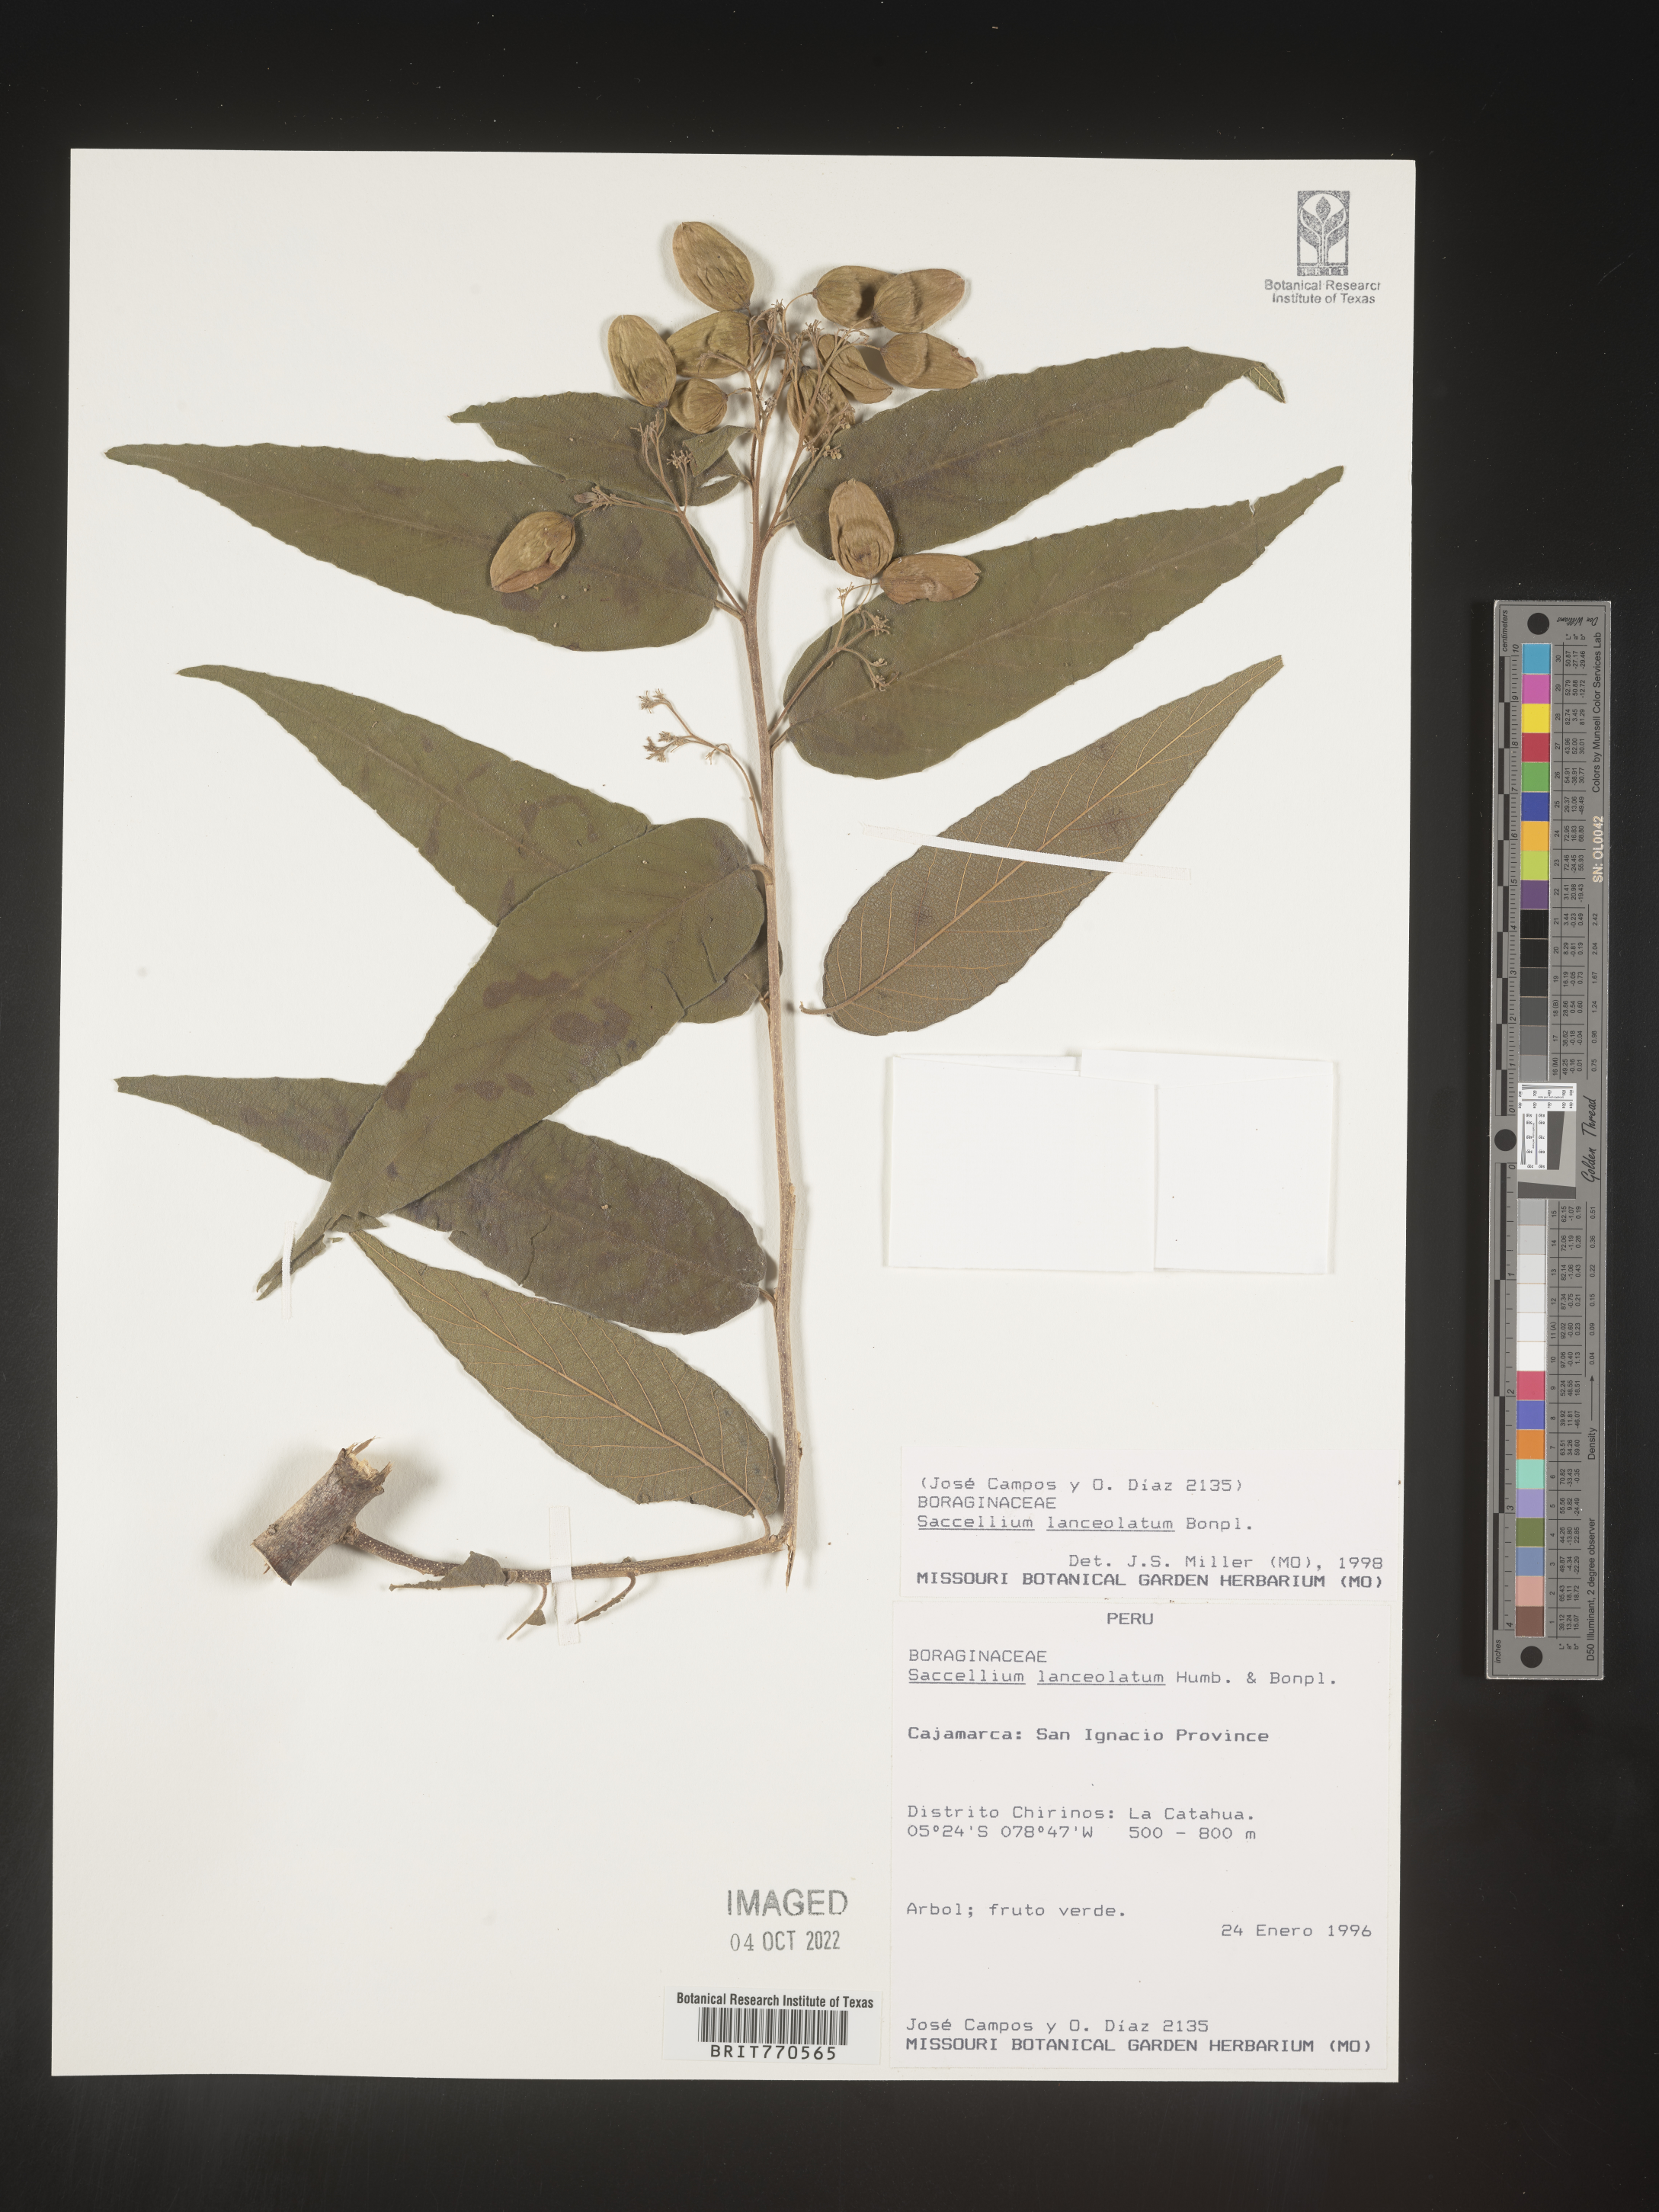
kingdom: Plantae
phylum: Tracheophyta
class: Magnoliopsida
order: Boraginales
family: Cordiaceae
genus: Cordia
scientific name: Cordia
